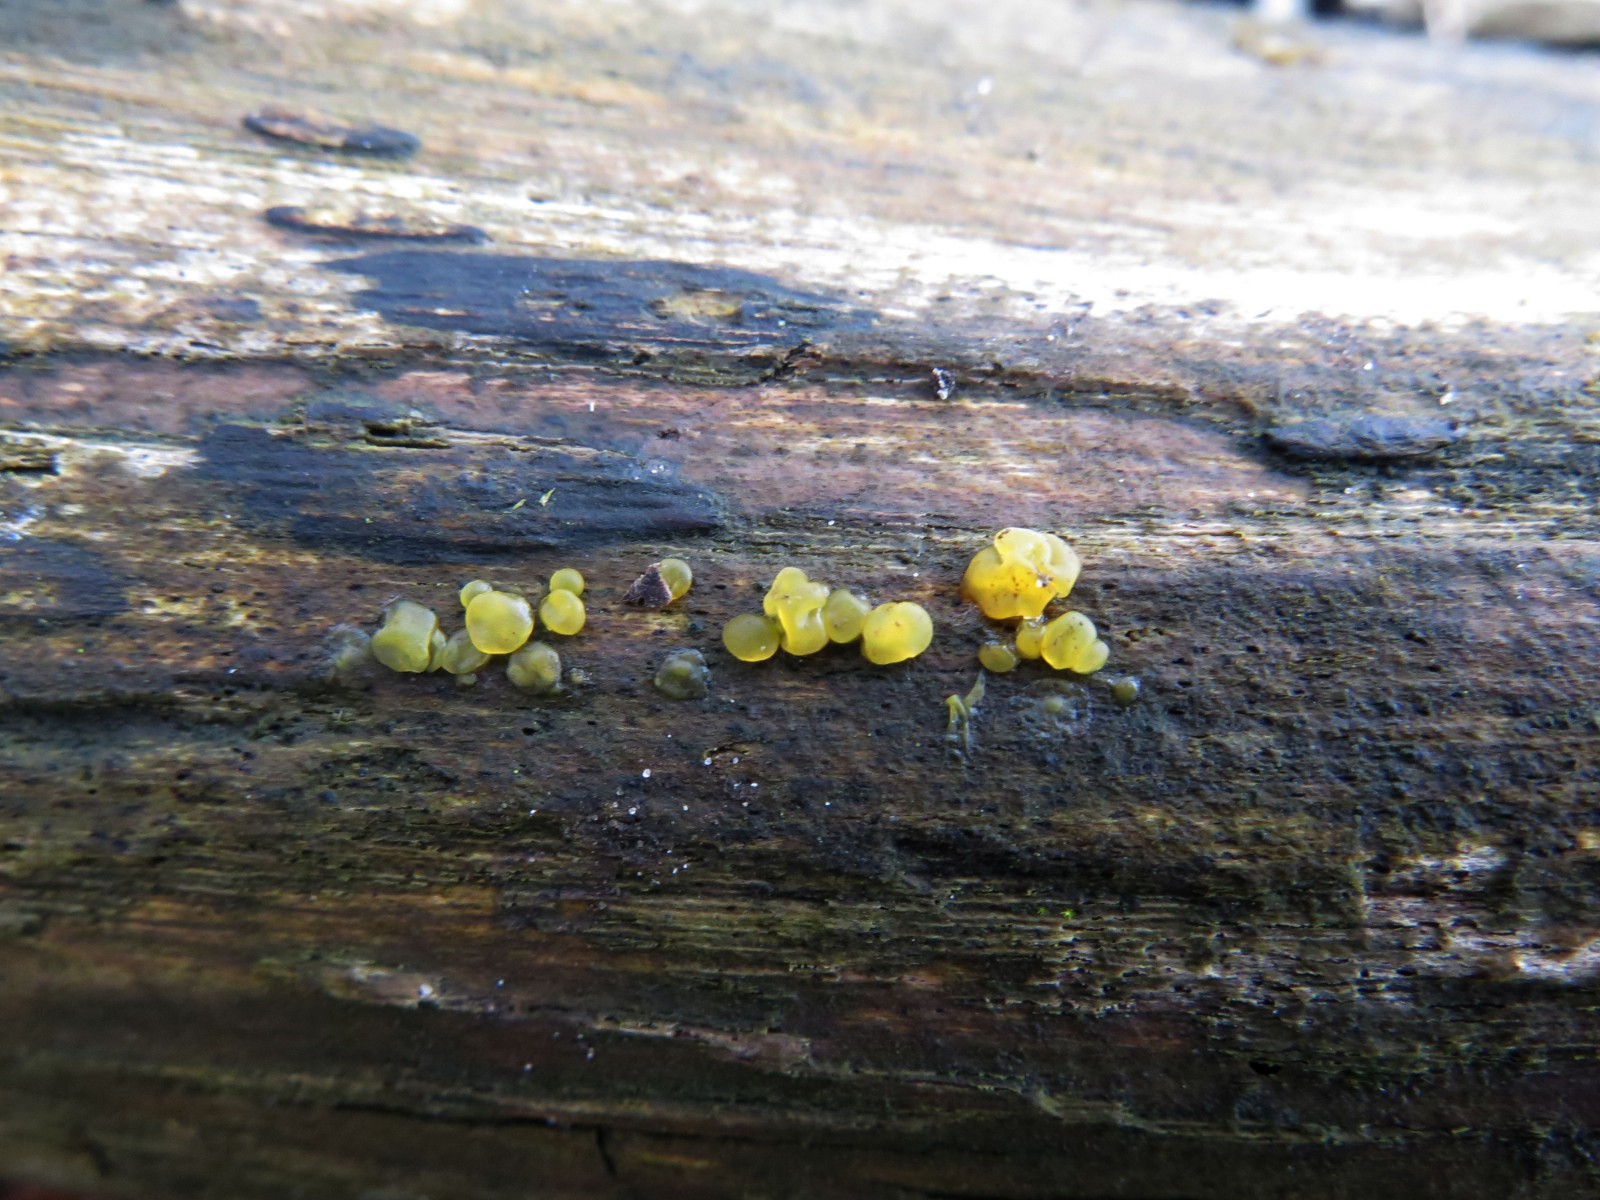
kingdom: Fungi
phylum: Basidiomycota
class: Dacrymycetes
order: Dacrymycetales
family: Dacrymycetaceae
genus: Dacrymyces
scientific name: Dacrymyces lacrymalis
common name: rynket tåresvamp
